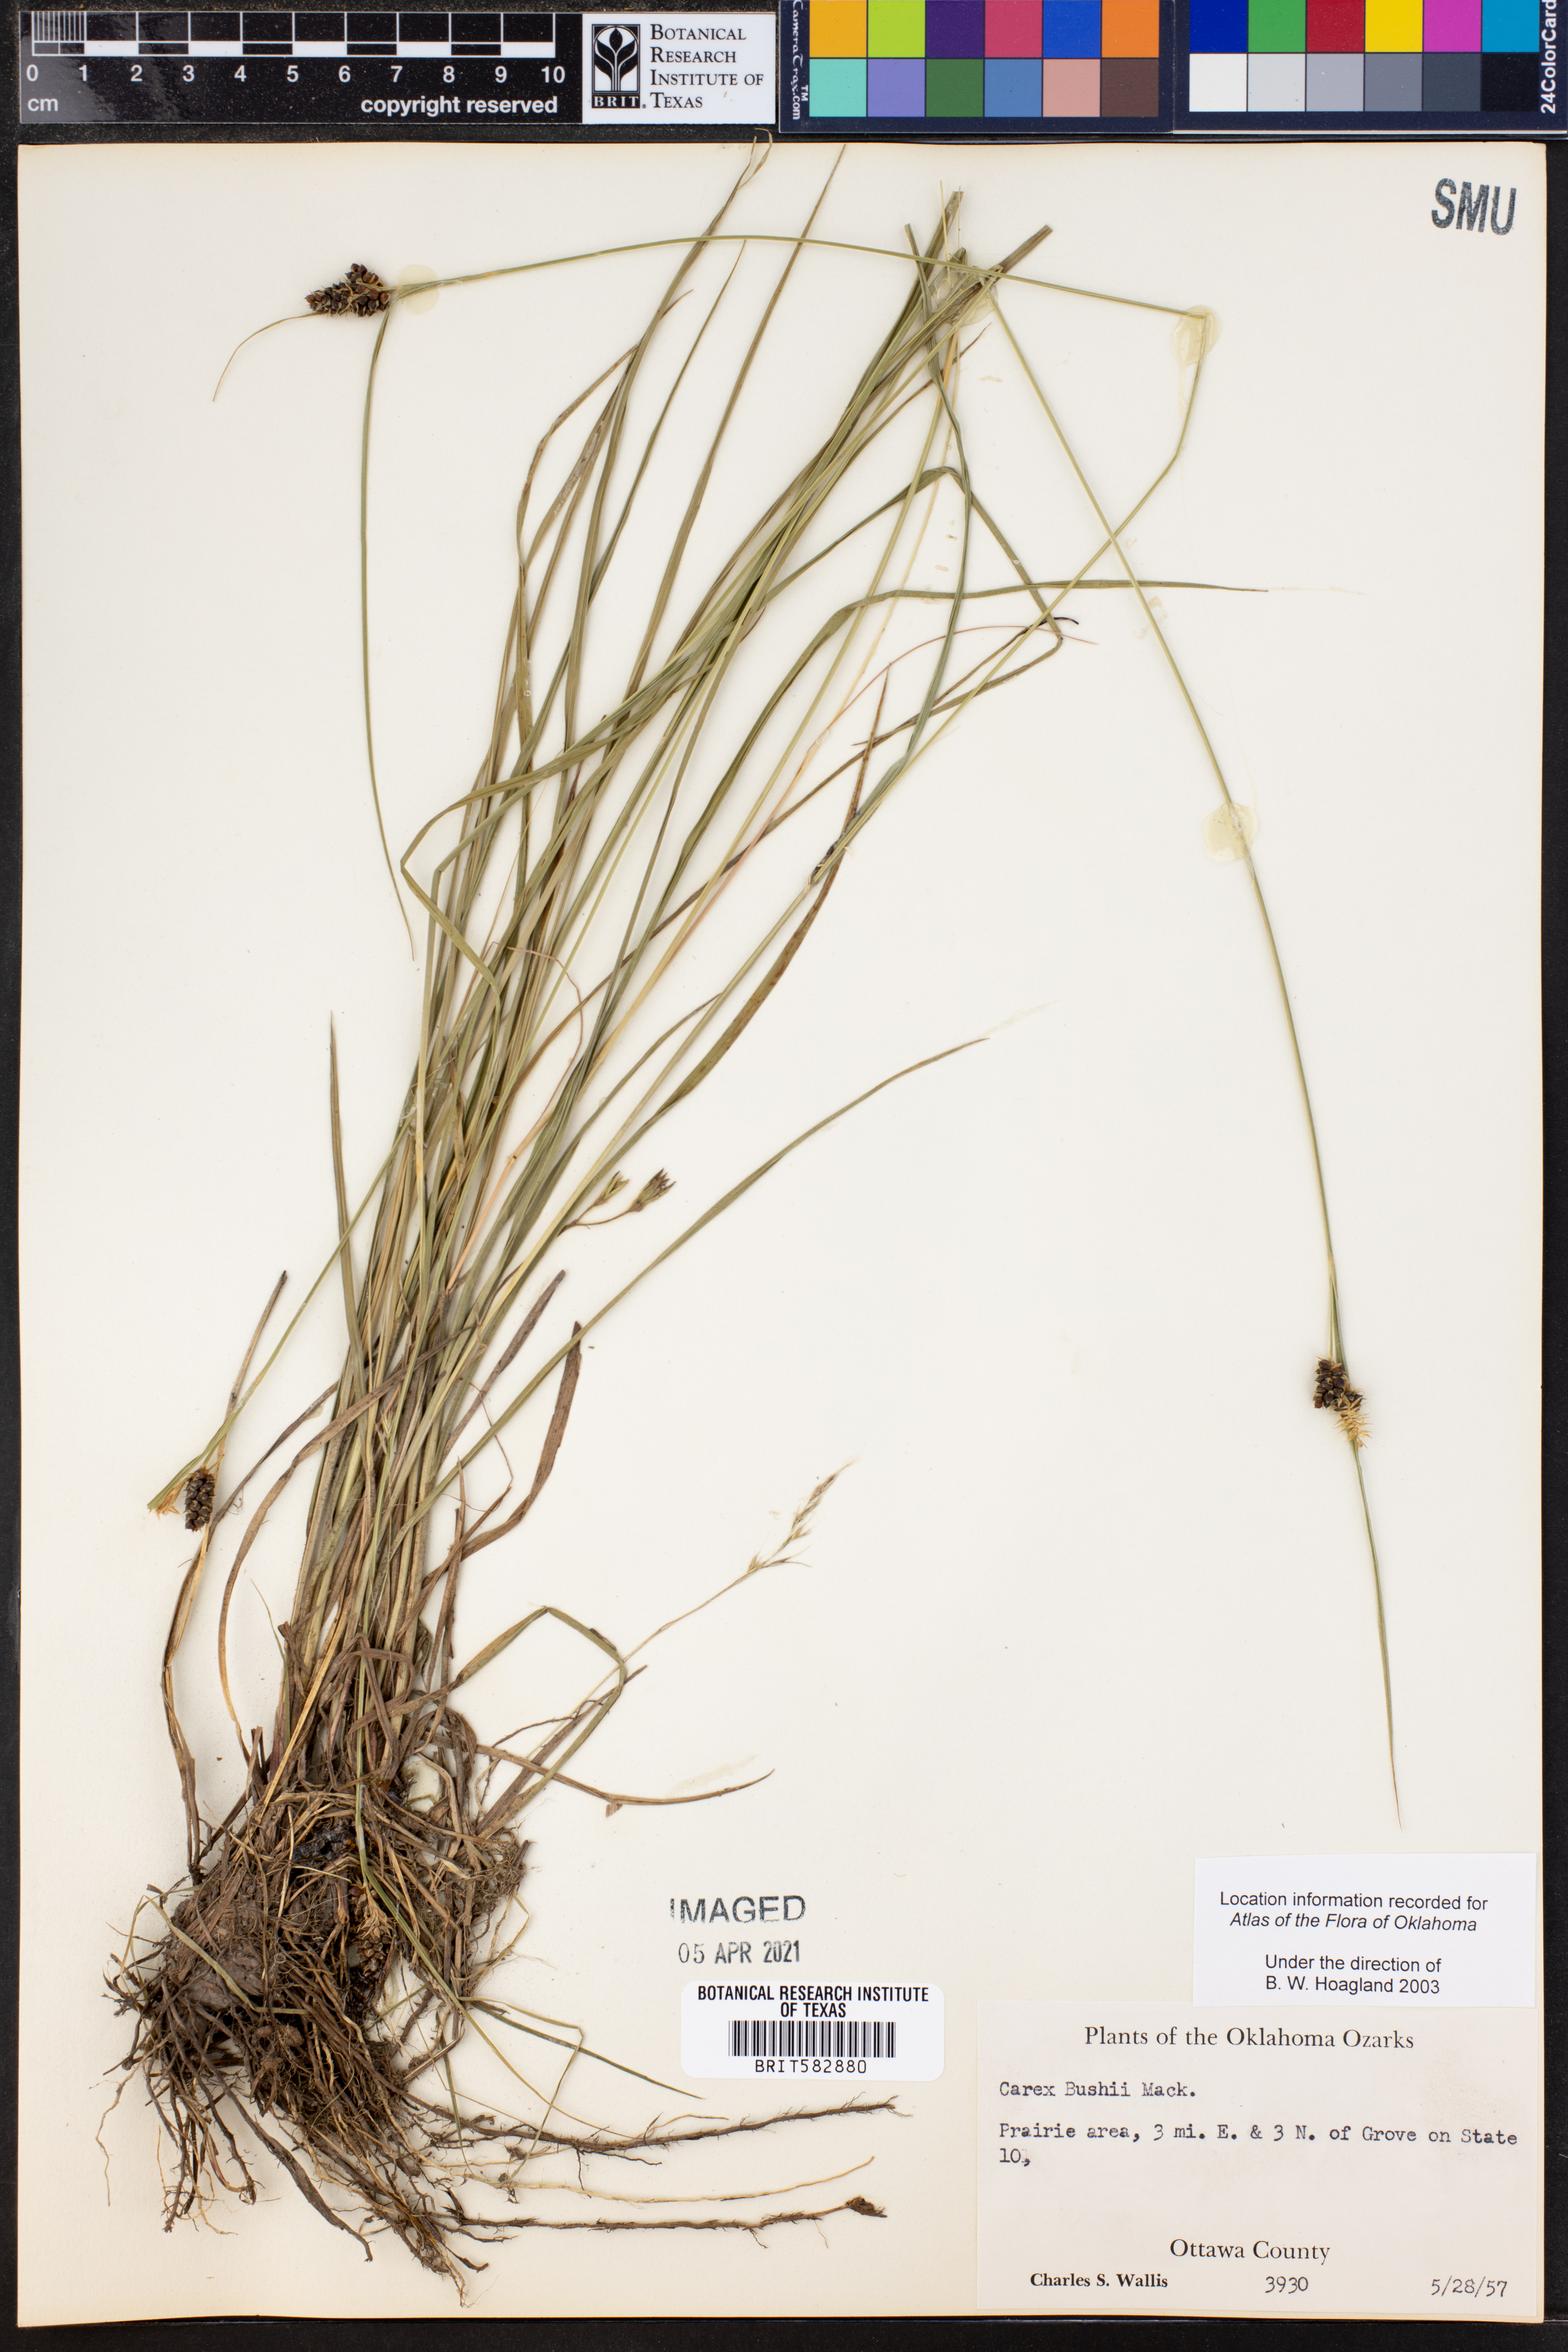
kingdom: Plantae
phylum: Tracheophyta
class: Liliopsida
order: Poales
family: Cyperaceae
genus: Carex
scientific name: Carex bushii
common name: Bush's sedge
